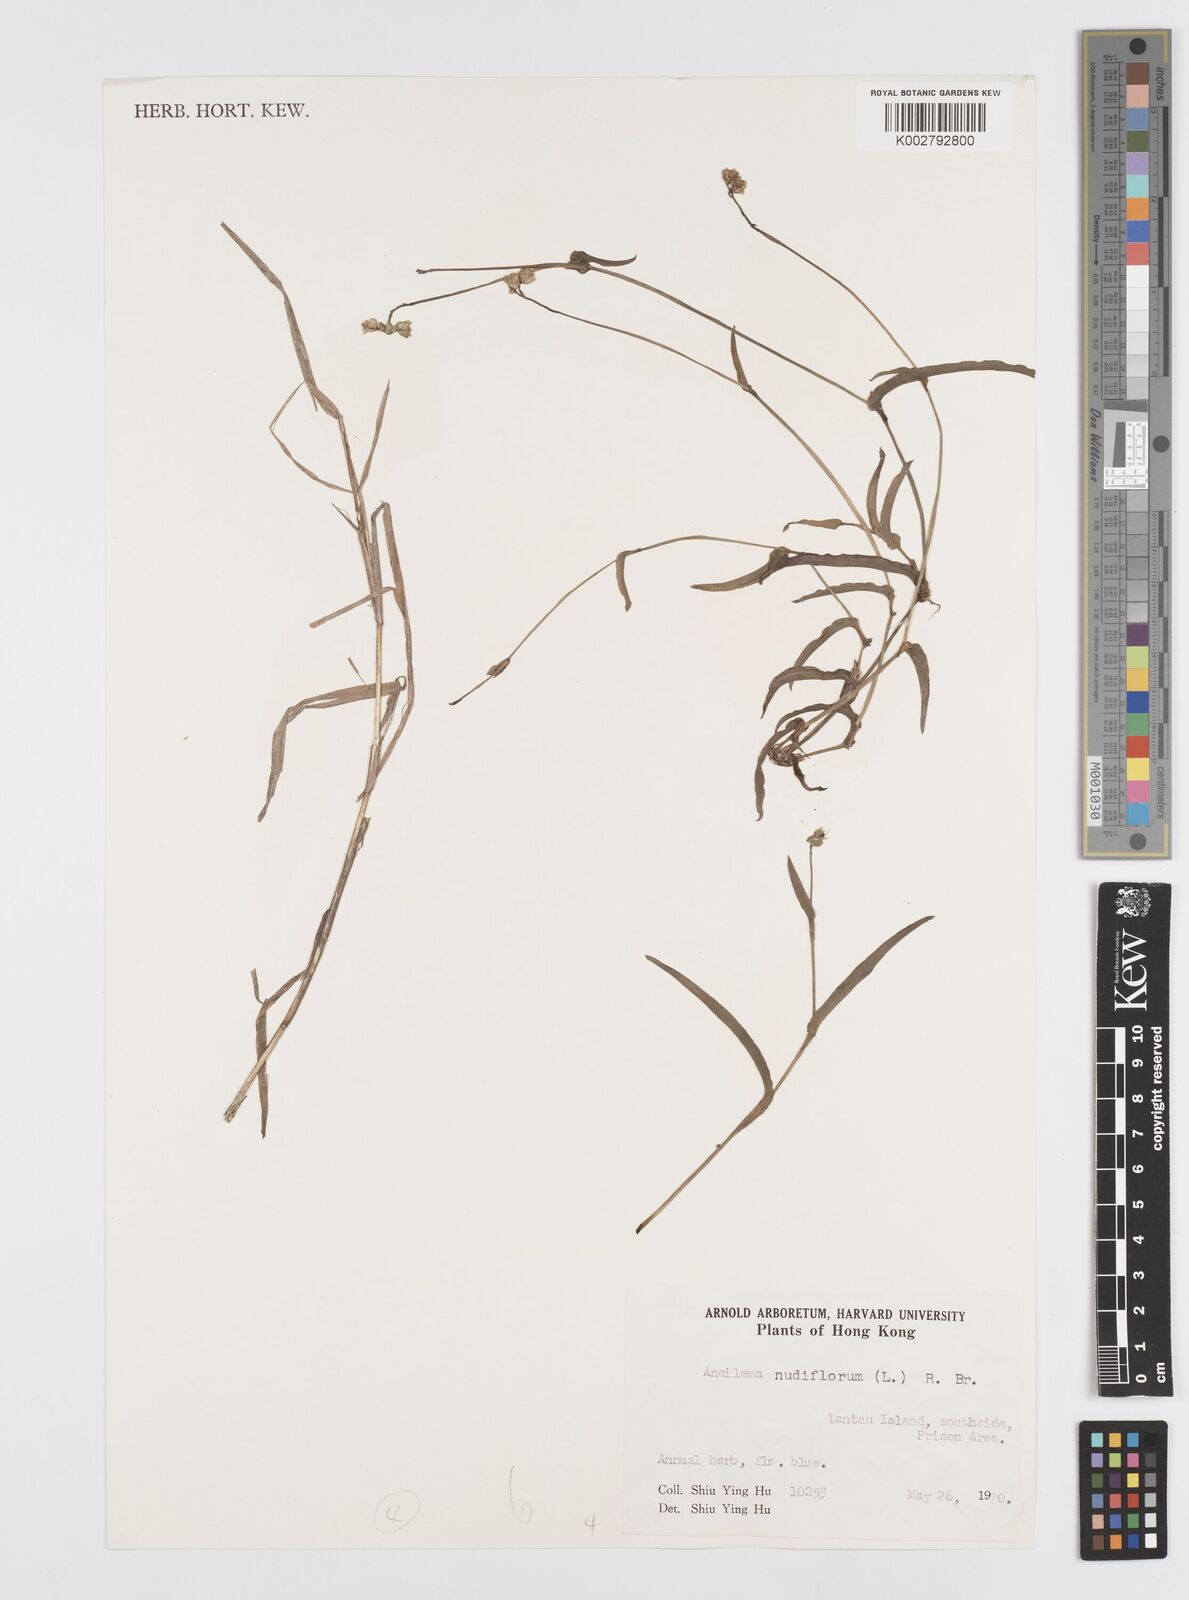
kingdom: Plantae
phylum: Tracheophyta
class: Liliopsida
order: Commelinales
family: Commelinaceae
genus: Murdannia
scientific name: Murdannia nudiflora
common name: Nakedstem dewflower
